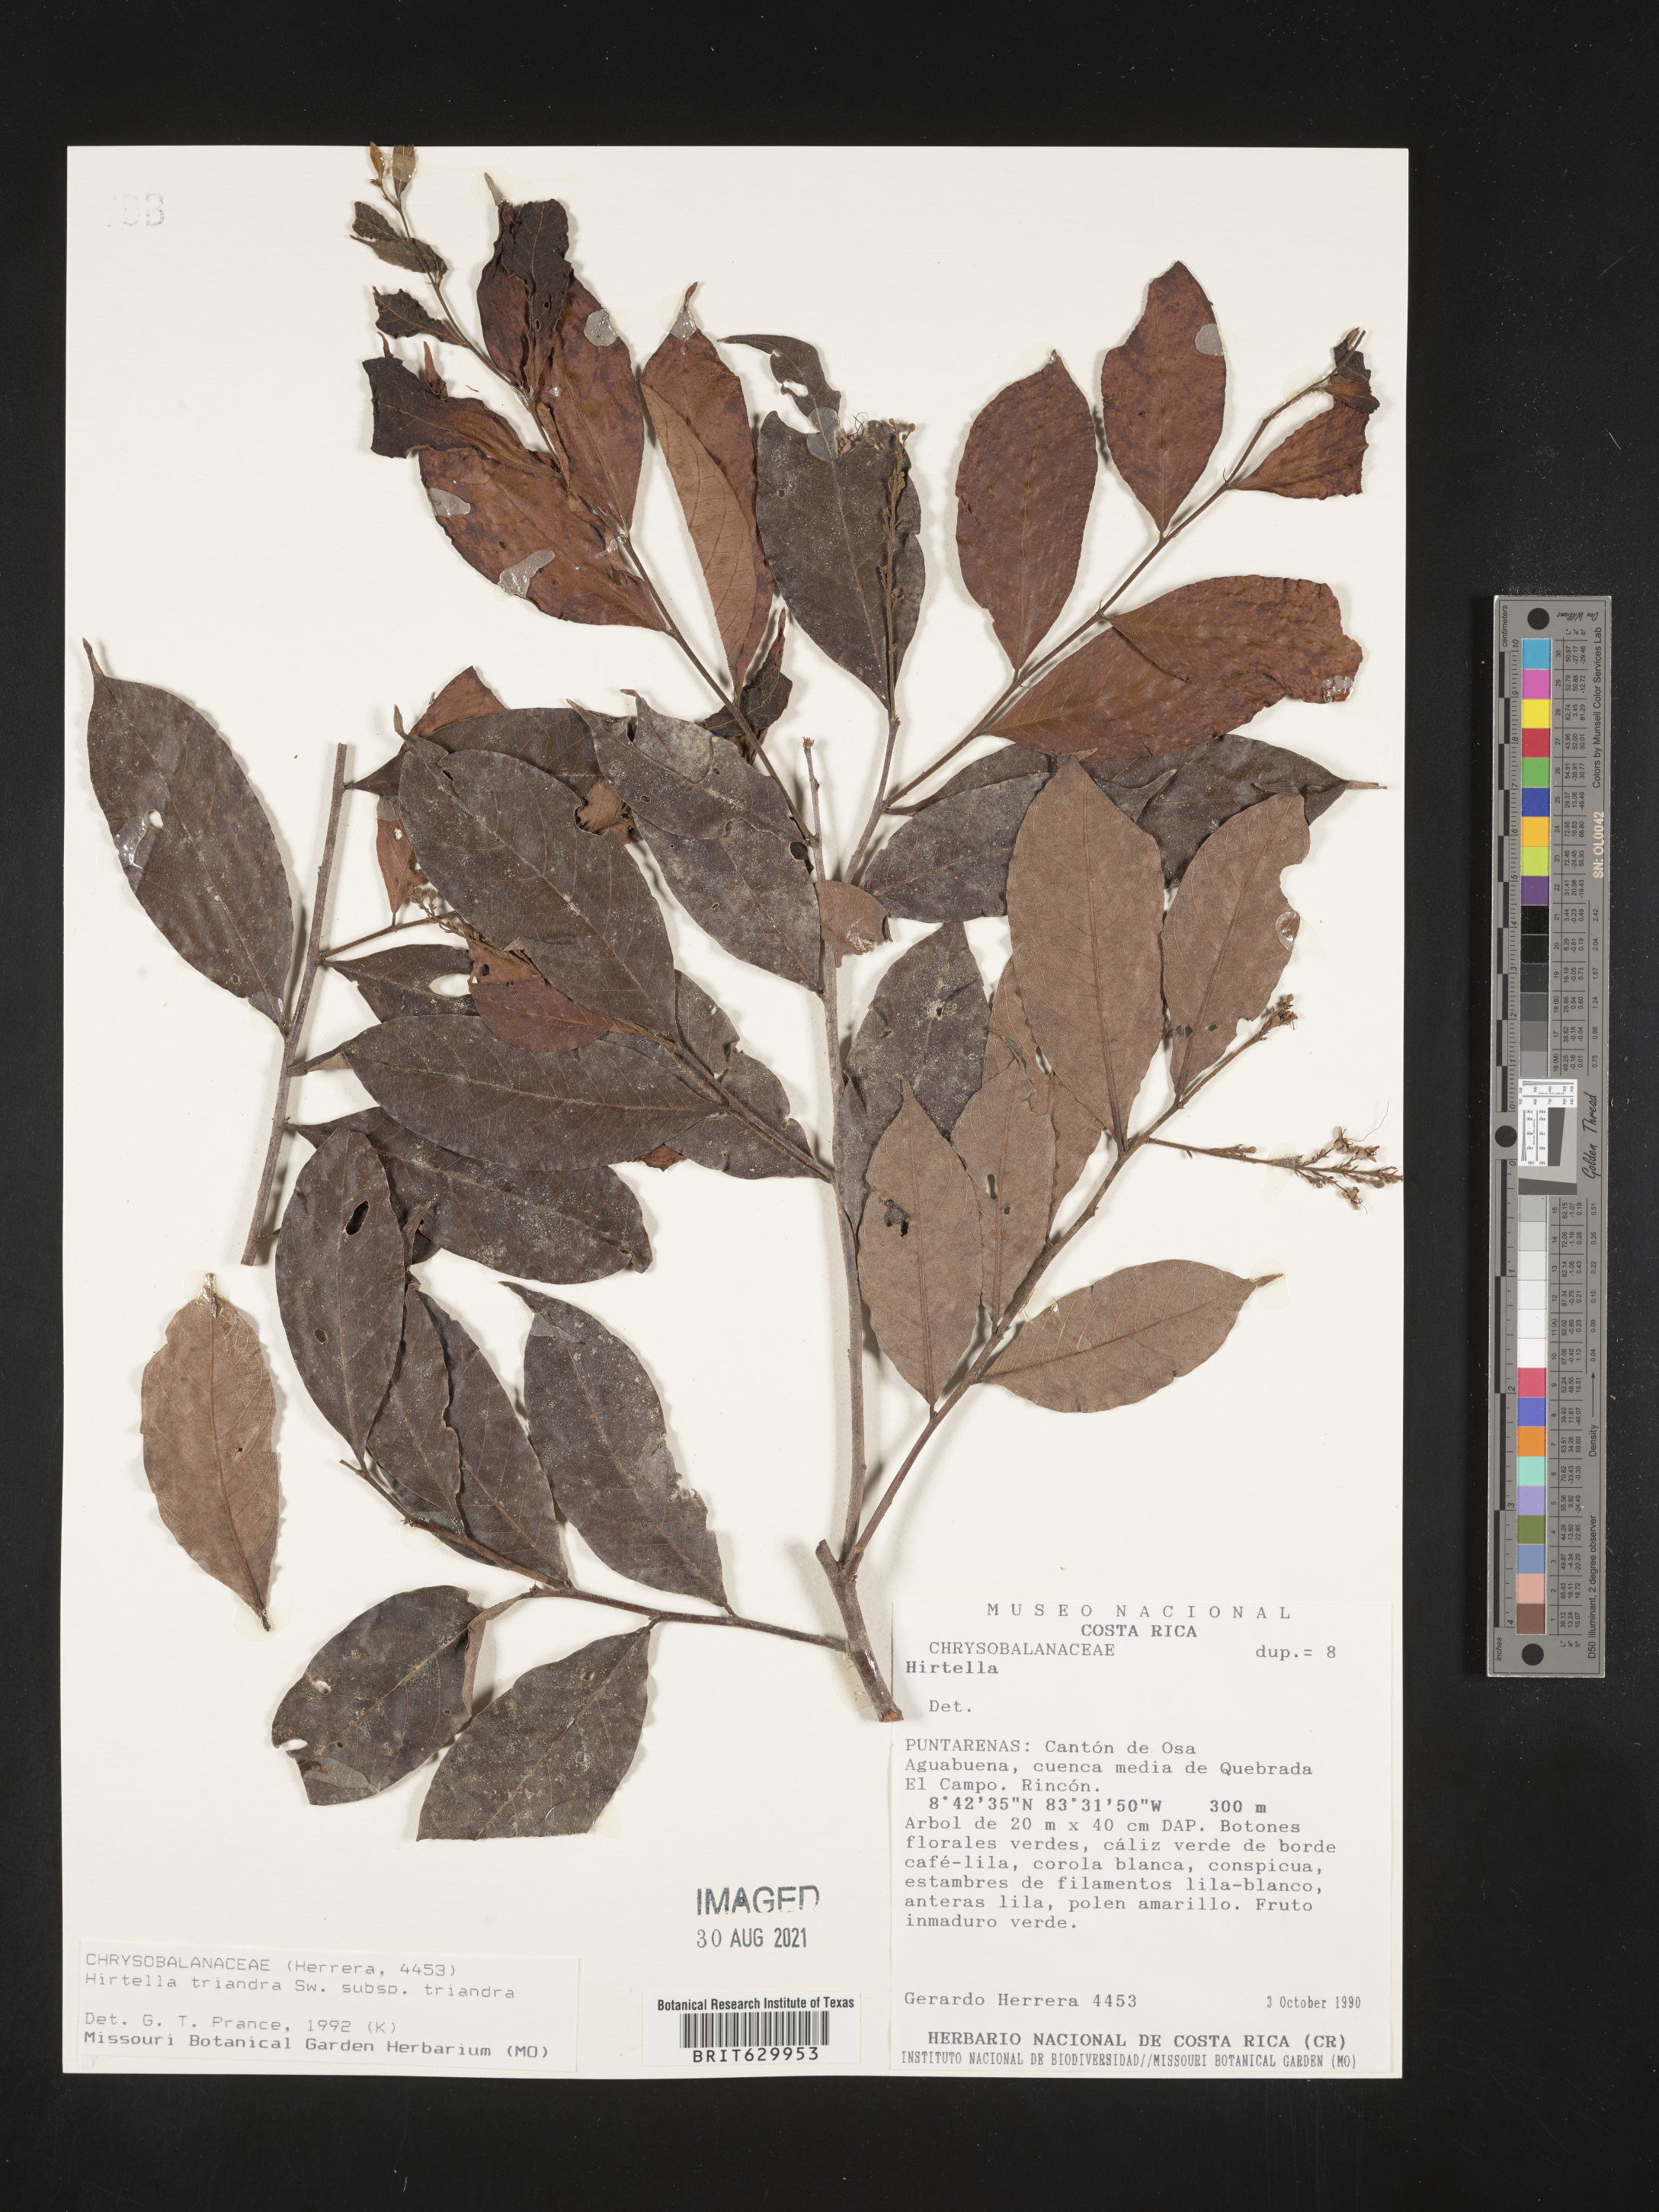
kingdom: Plantae
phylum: Tracheophyta
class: Magnoliopsida
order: Malpighiales
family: Chrysobalanaceae
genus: Hirtella
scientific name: Hirtella triandra
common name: Hairy plum
